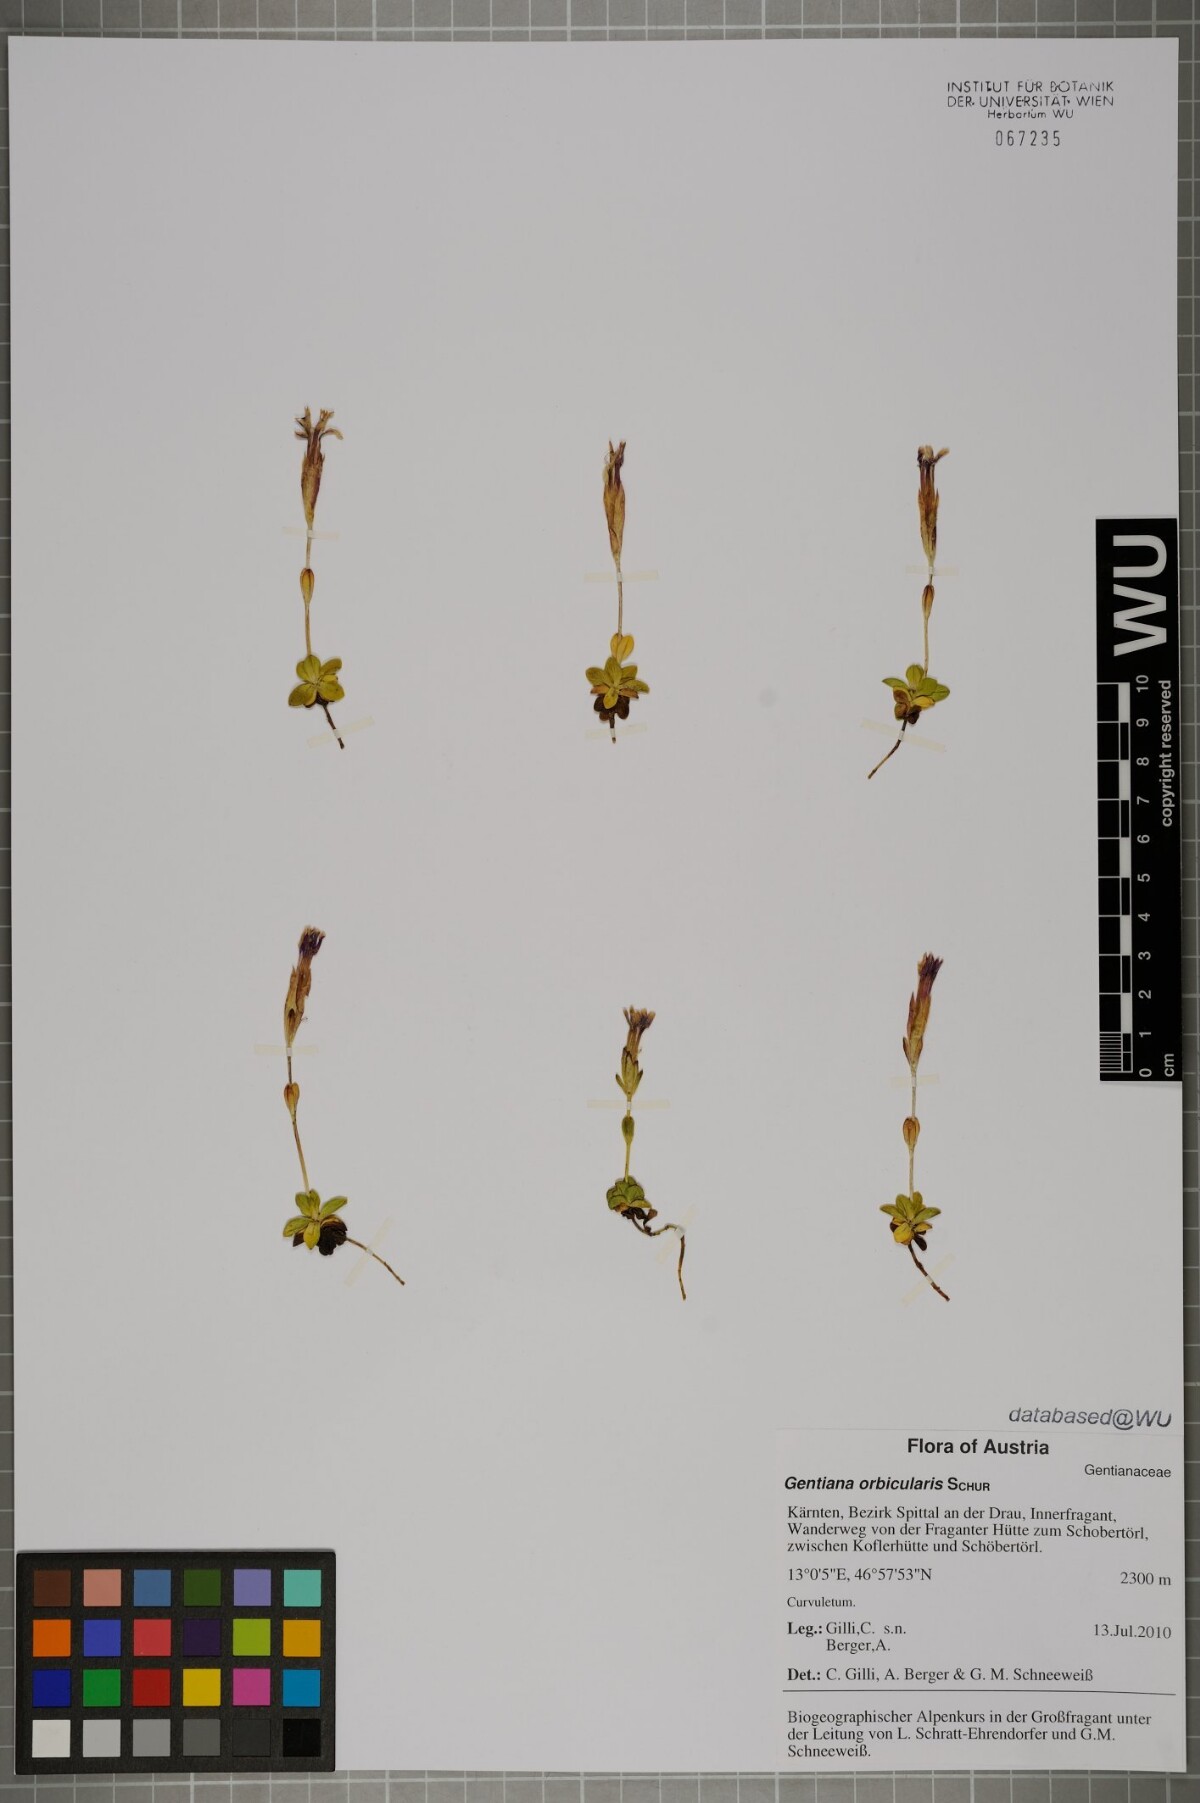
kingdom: Plantae
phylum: Tracheophyta
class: Magnoliopsida
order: Gentianales
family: Gentianaceae
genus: Gentiana
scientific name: Gentiana orbicularis
